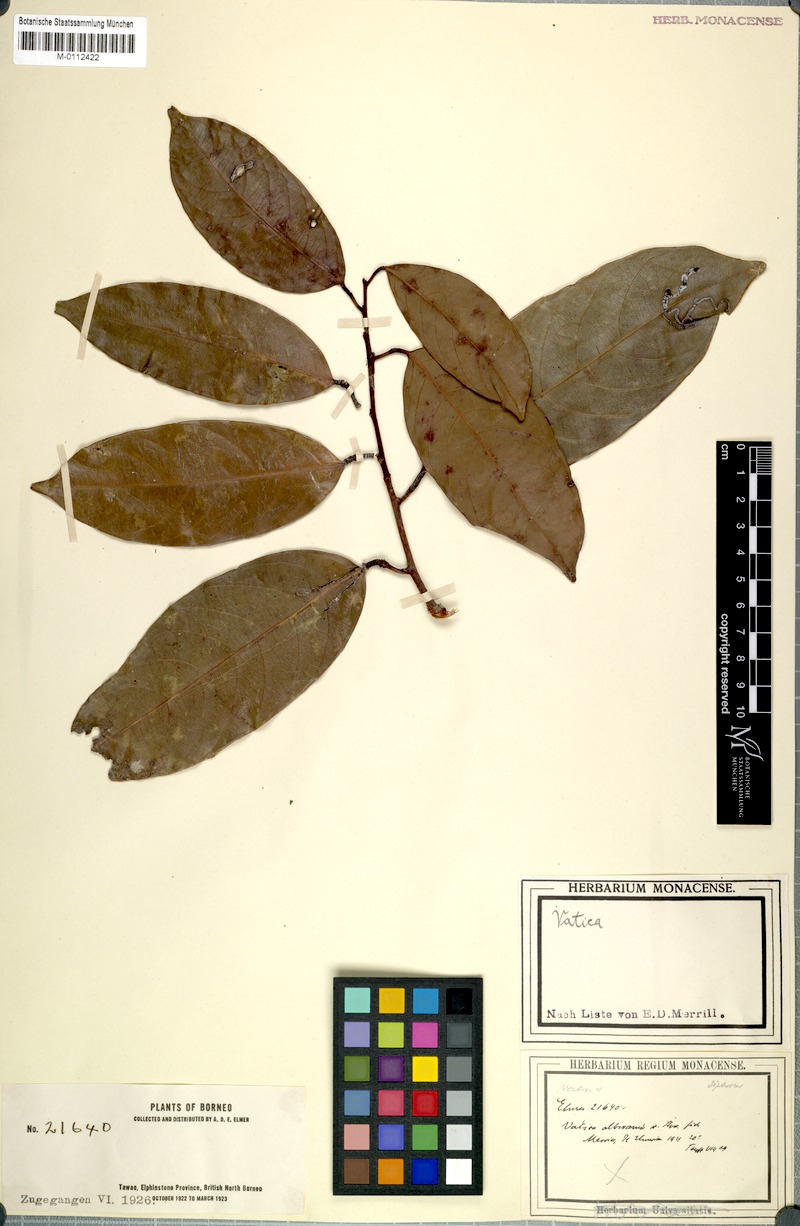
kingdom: Plantae
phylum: Tracheophyta
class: Magnoliopsida
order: Malvales
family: Dipterocarpaceae
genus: Vatica
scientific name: Vatica albiramis
